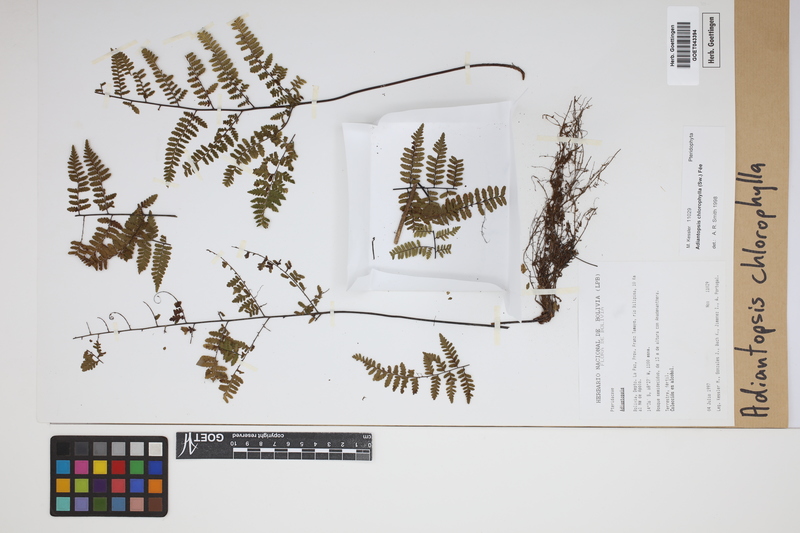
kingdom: Plantae
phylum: Tracheophyta
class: Polypodiopsida
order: Polypodiales
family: Pteridaceae
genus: Adiantopsis
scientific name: Adiantopsis chlorophylla
